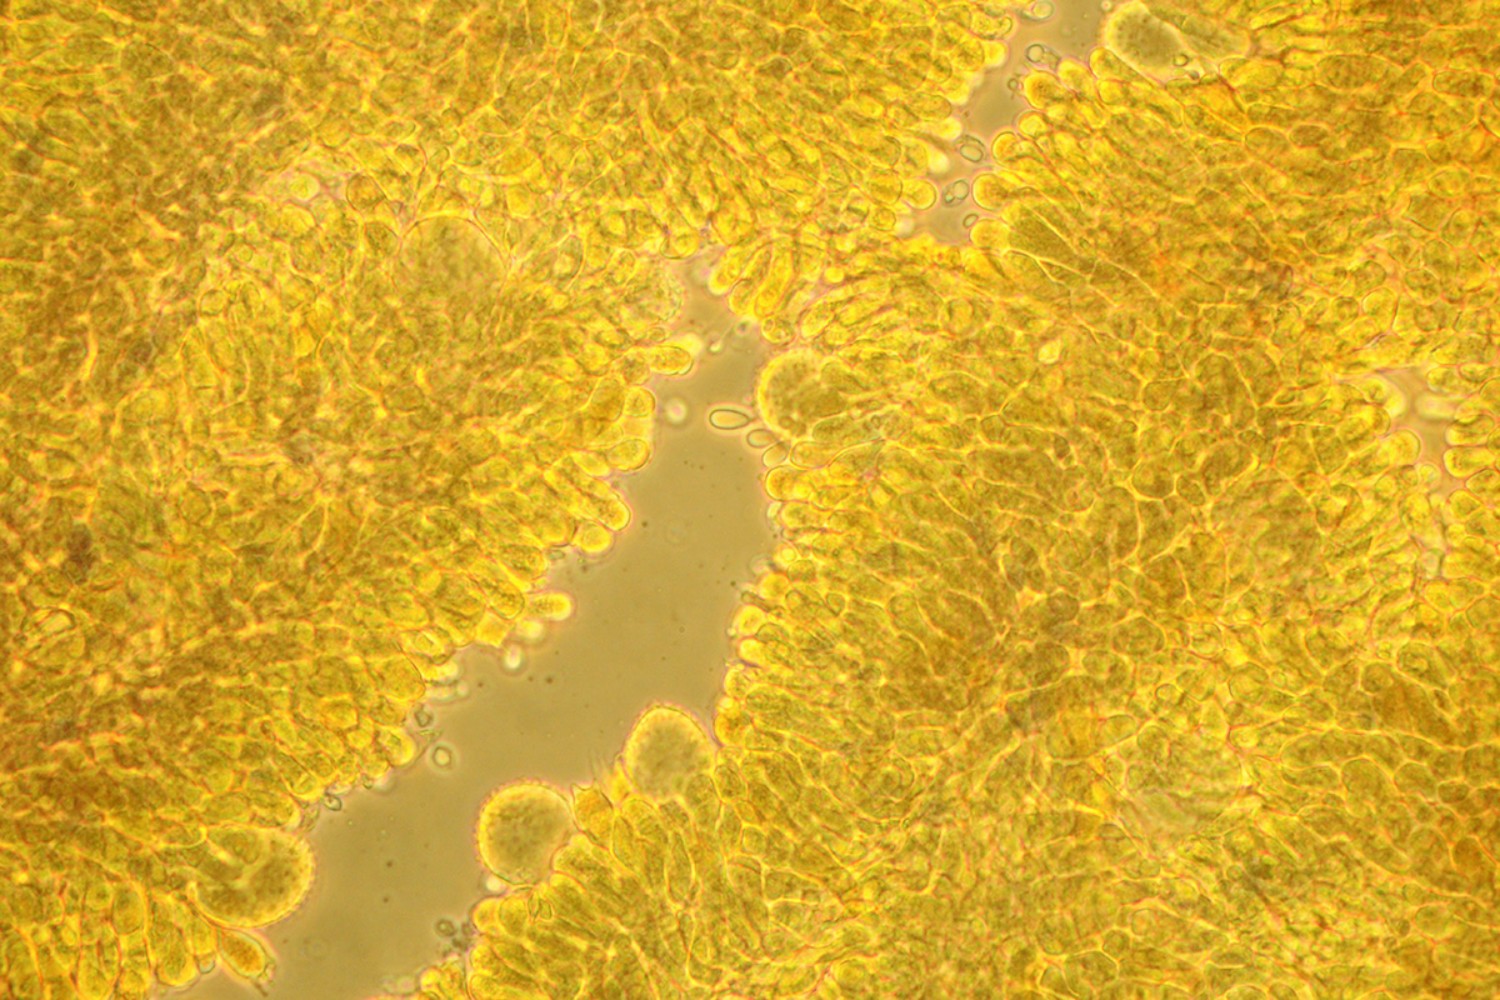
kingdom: Fungi
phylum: Basidiomycota
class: Agaricomycetes
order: Agaricales
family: Mycenaceae
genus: Mycena
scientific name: Mycena flavescens
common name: grågul huesvamp
